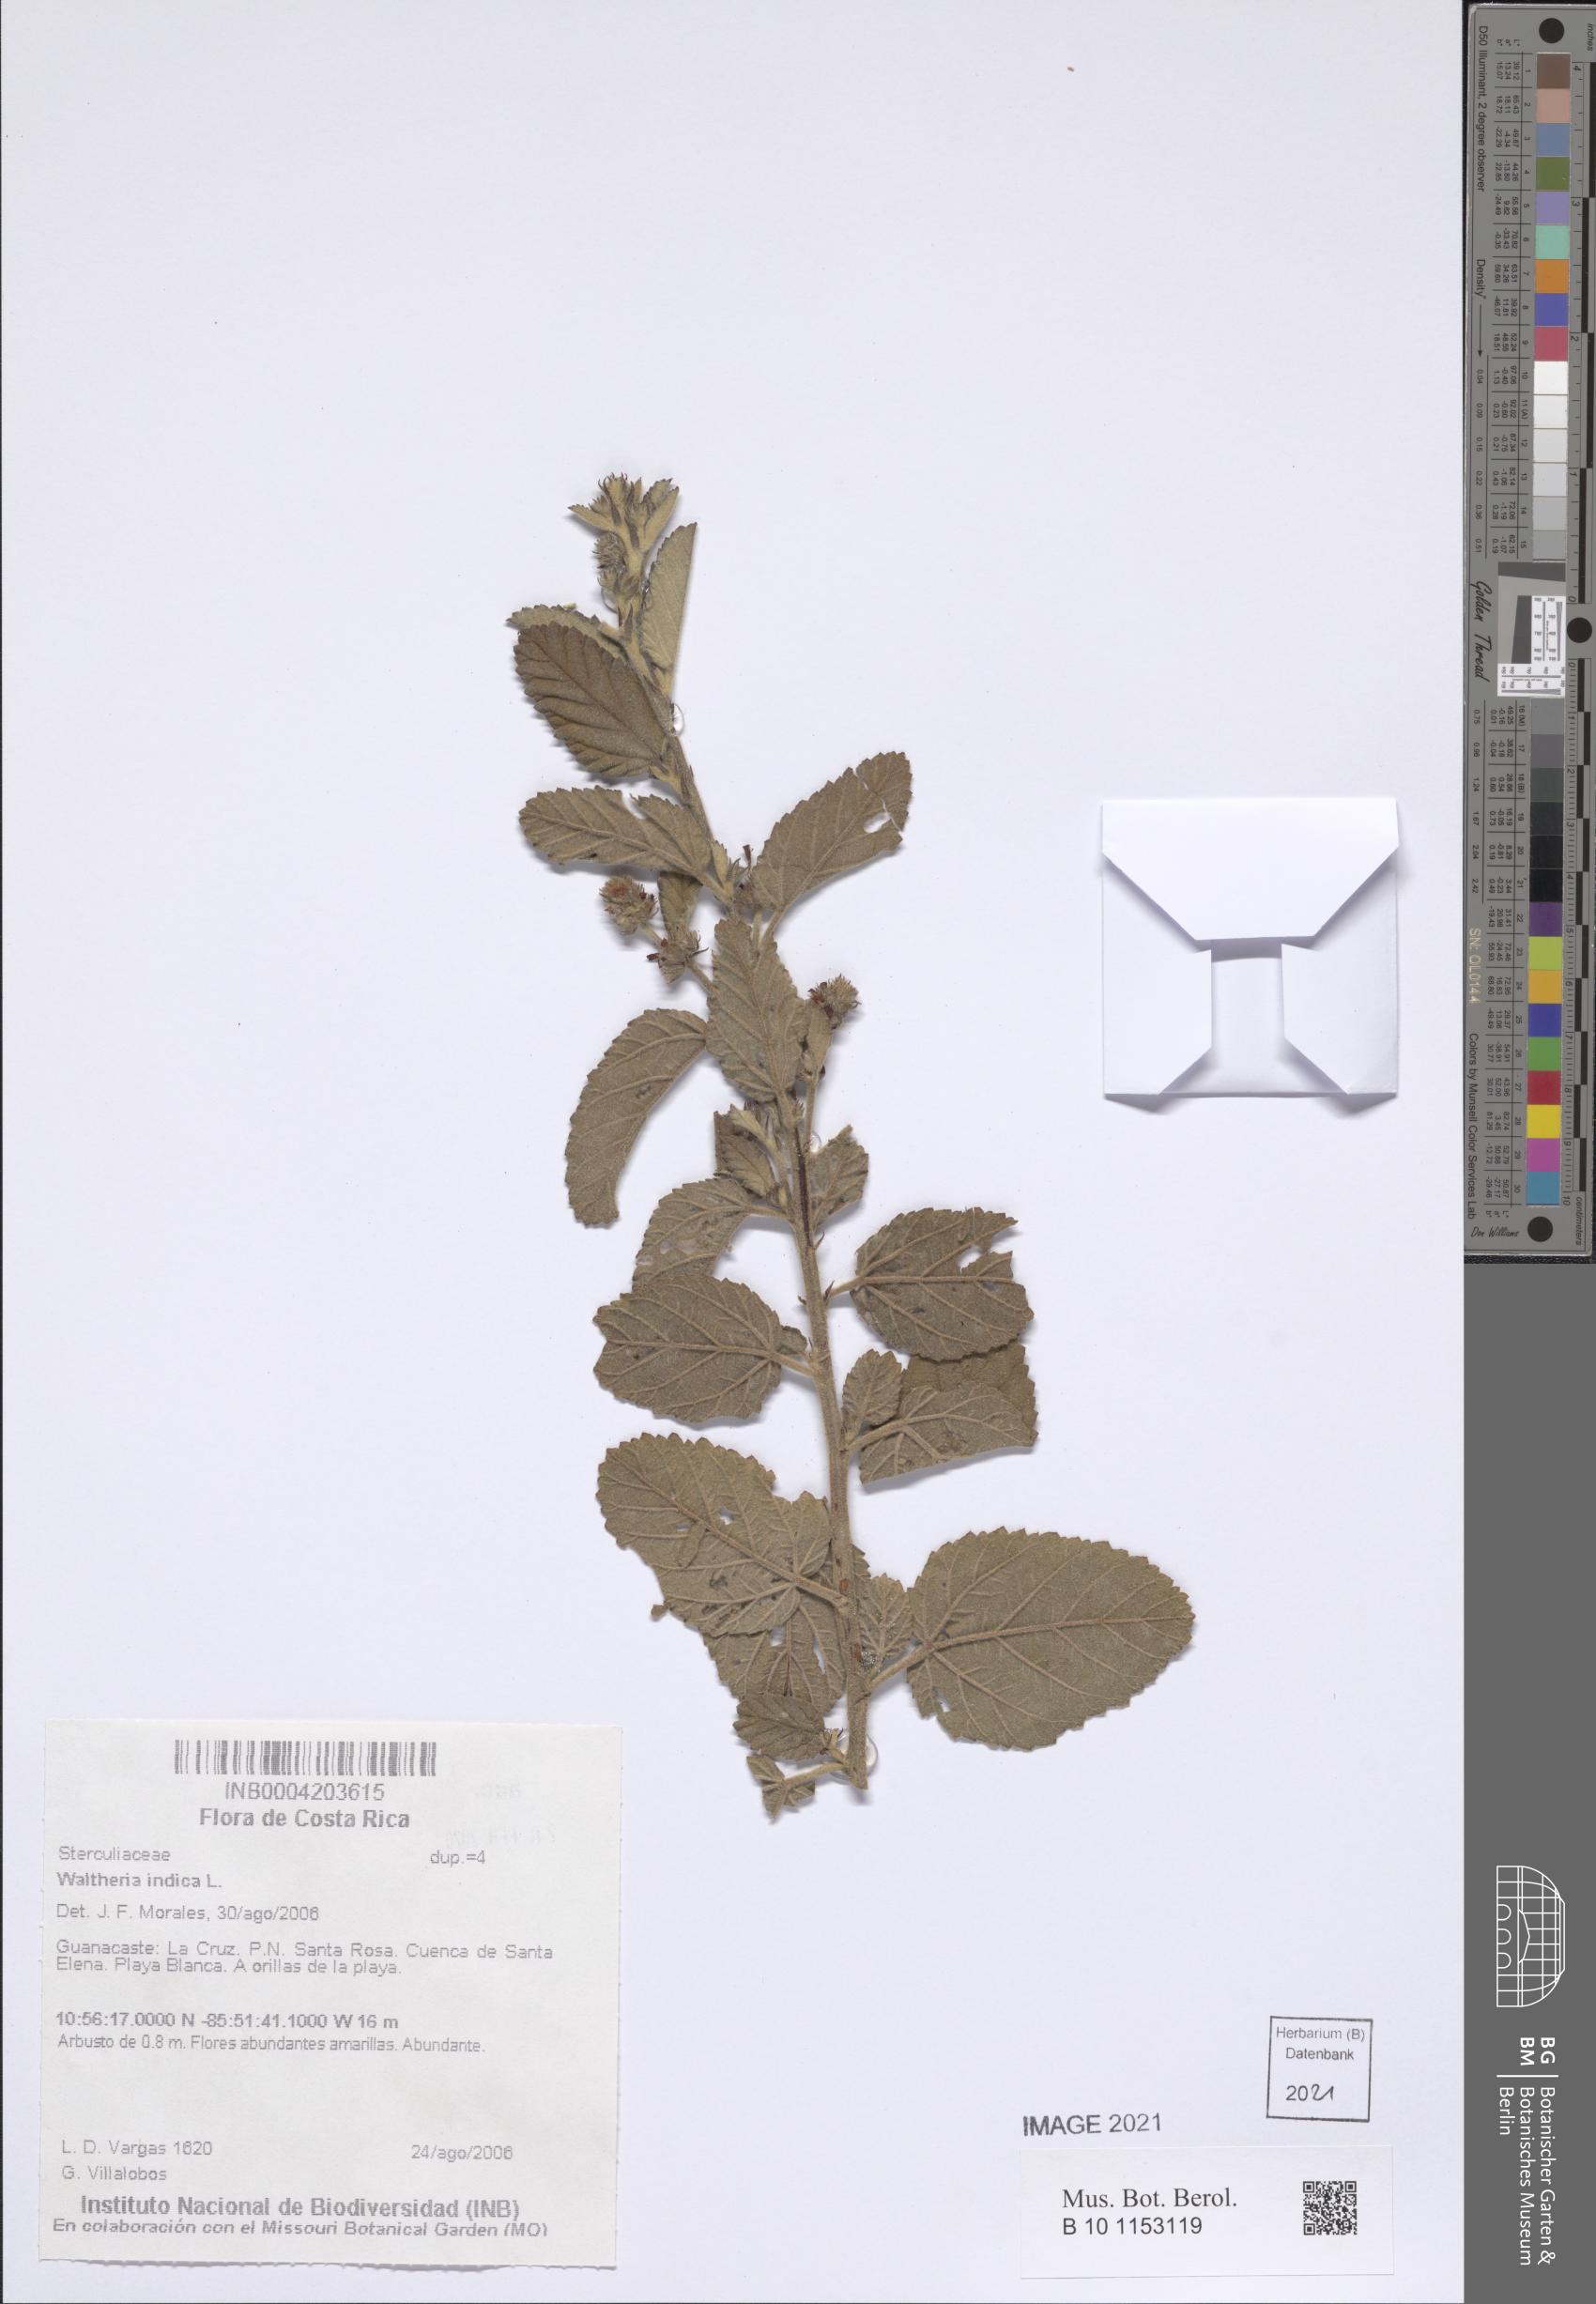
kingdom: Plantae
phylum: Tracheophyta
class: Magnoliopsida
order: Malvales
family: Malvaceae
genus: Waltheria
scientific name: Waltheria indica
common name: Leather-coat
